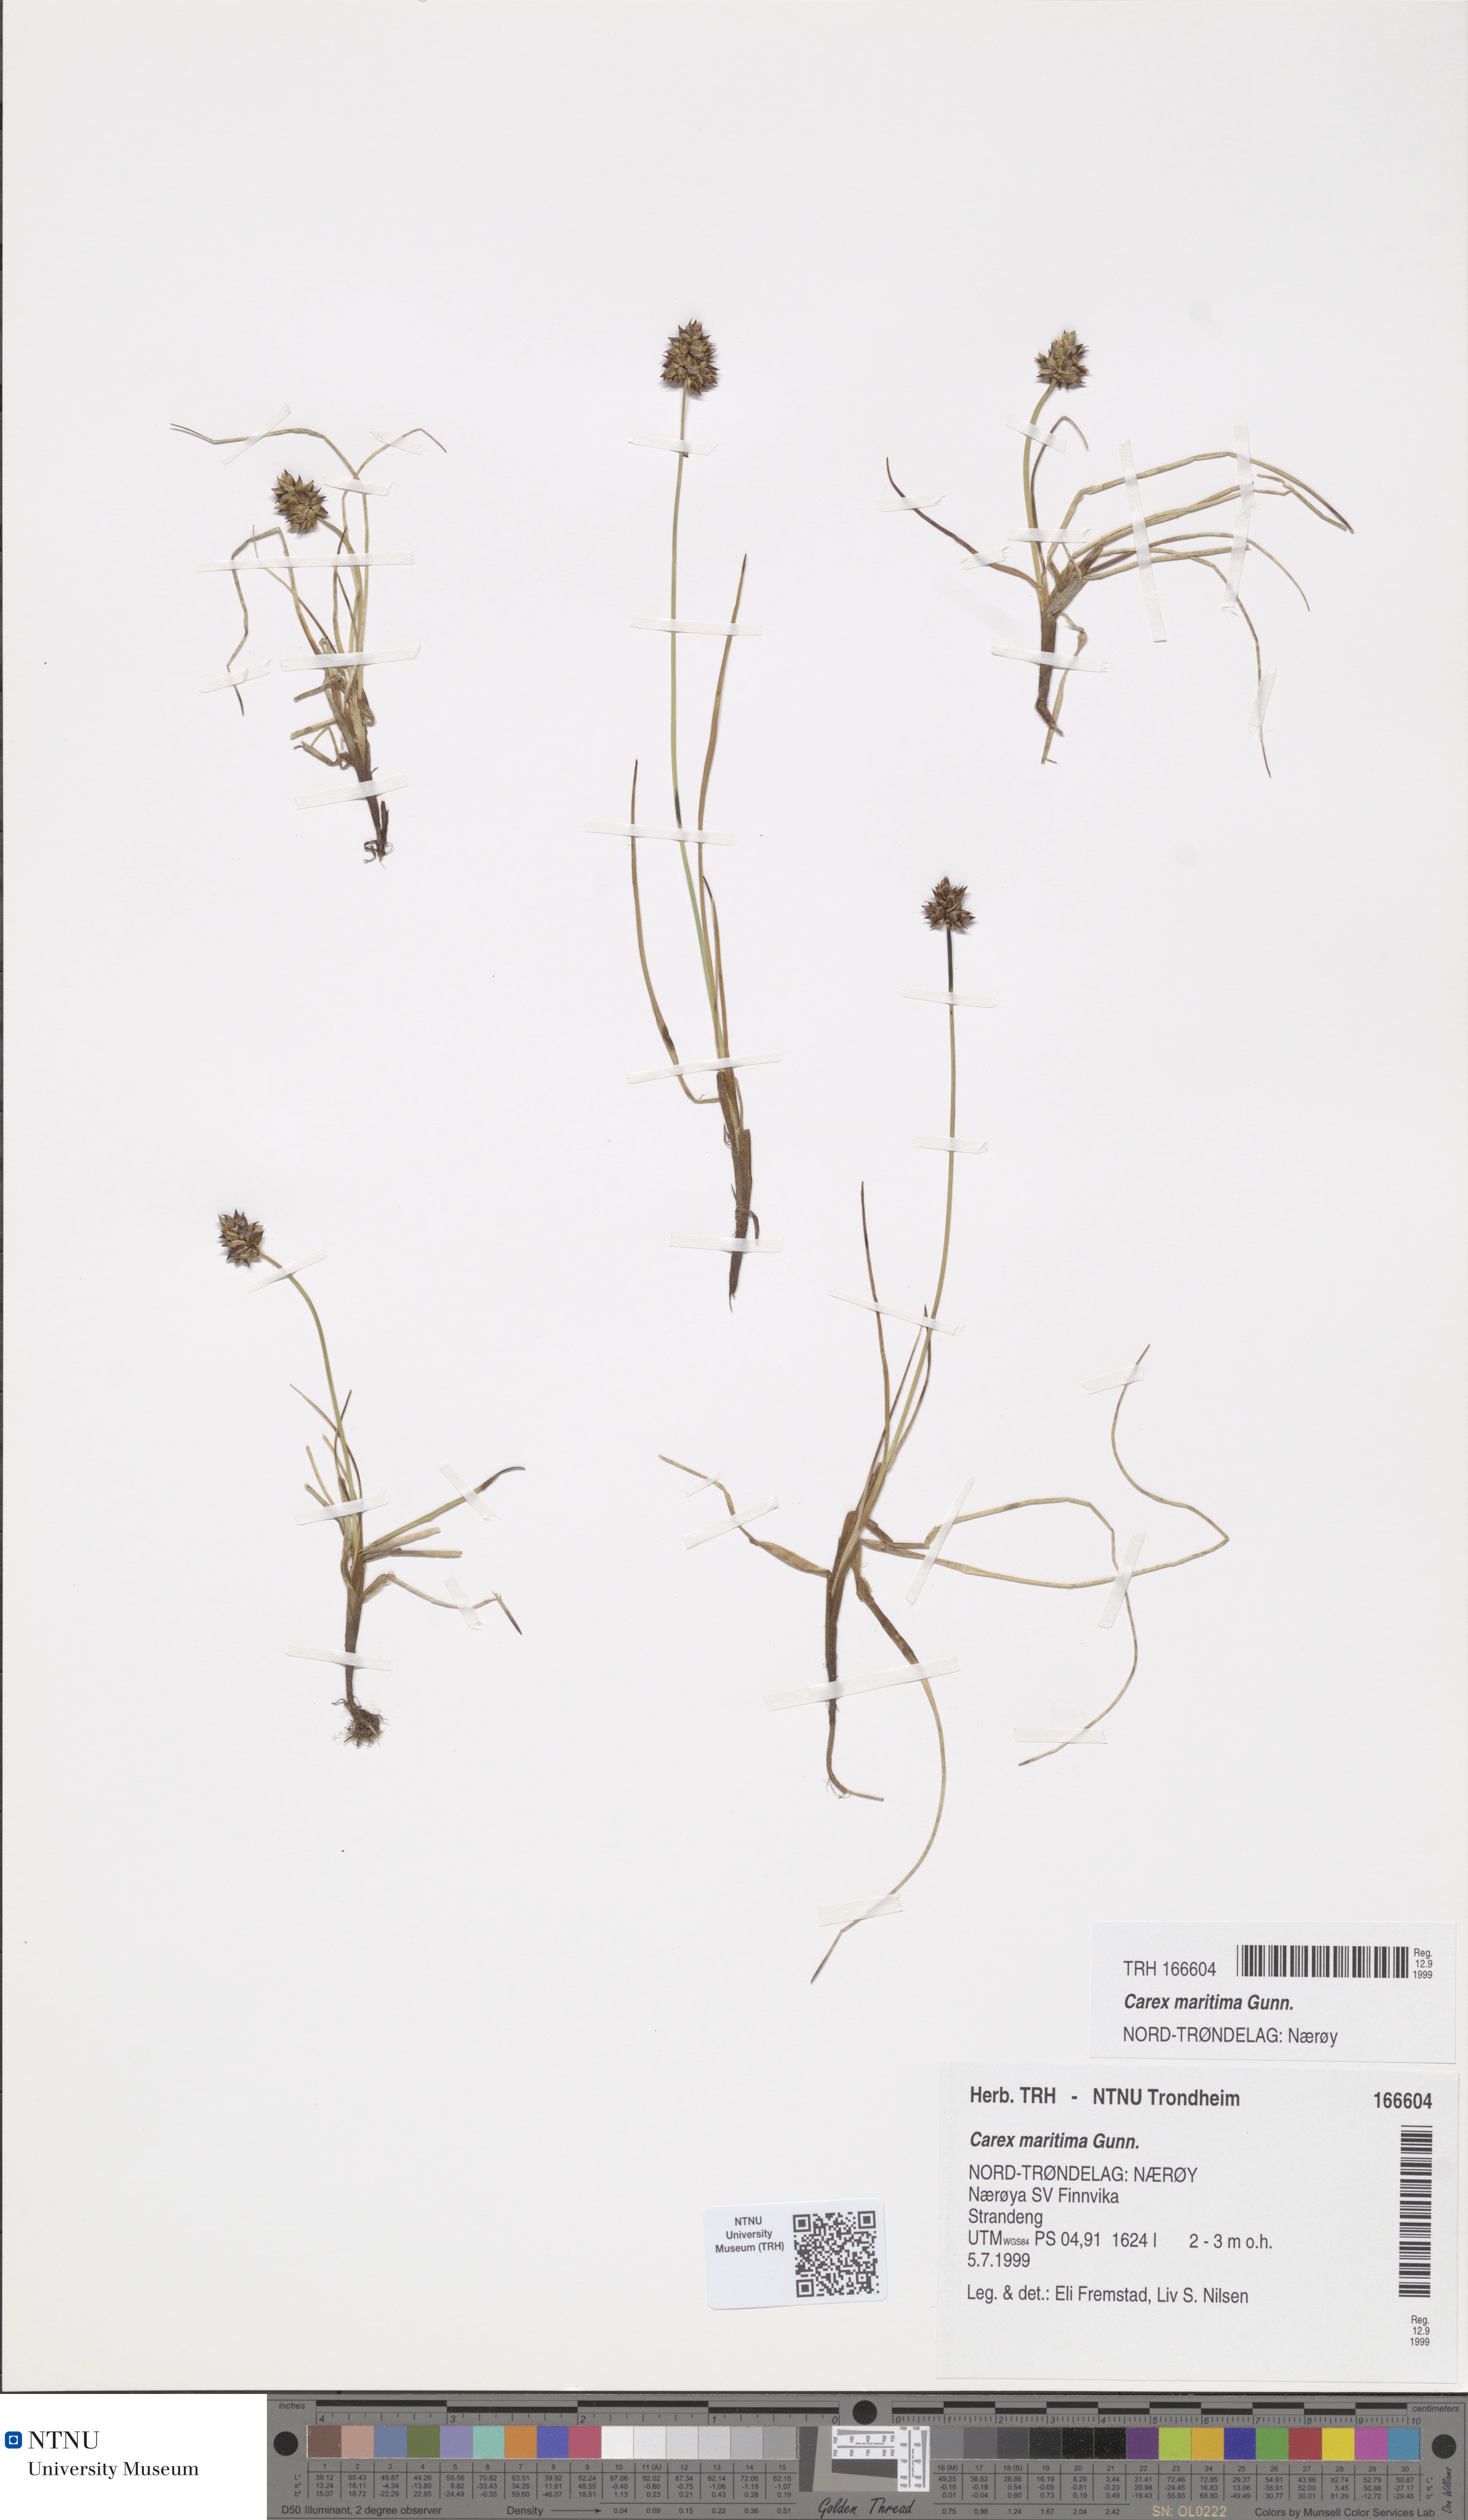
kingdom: Plantae
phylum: Tracheophyta
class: Liliopsida
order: Poales
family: Cyperaceae
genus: Carex
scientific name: Carex maritima
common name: Curved sedge
